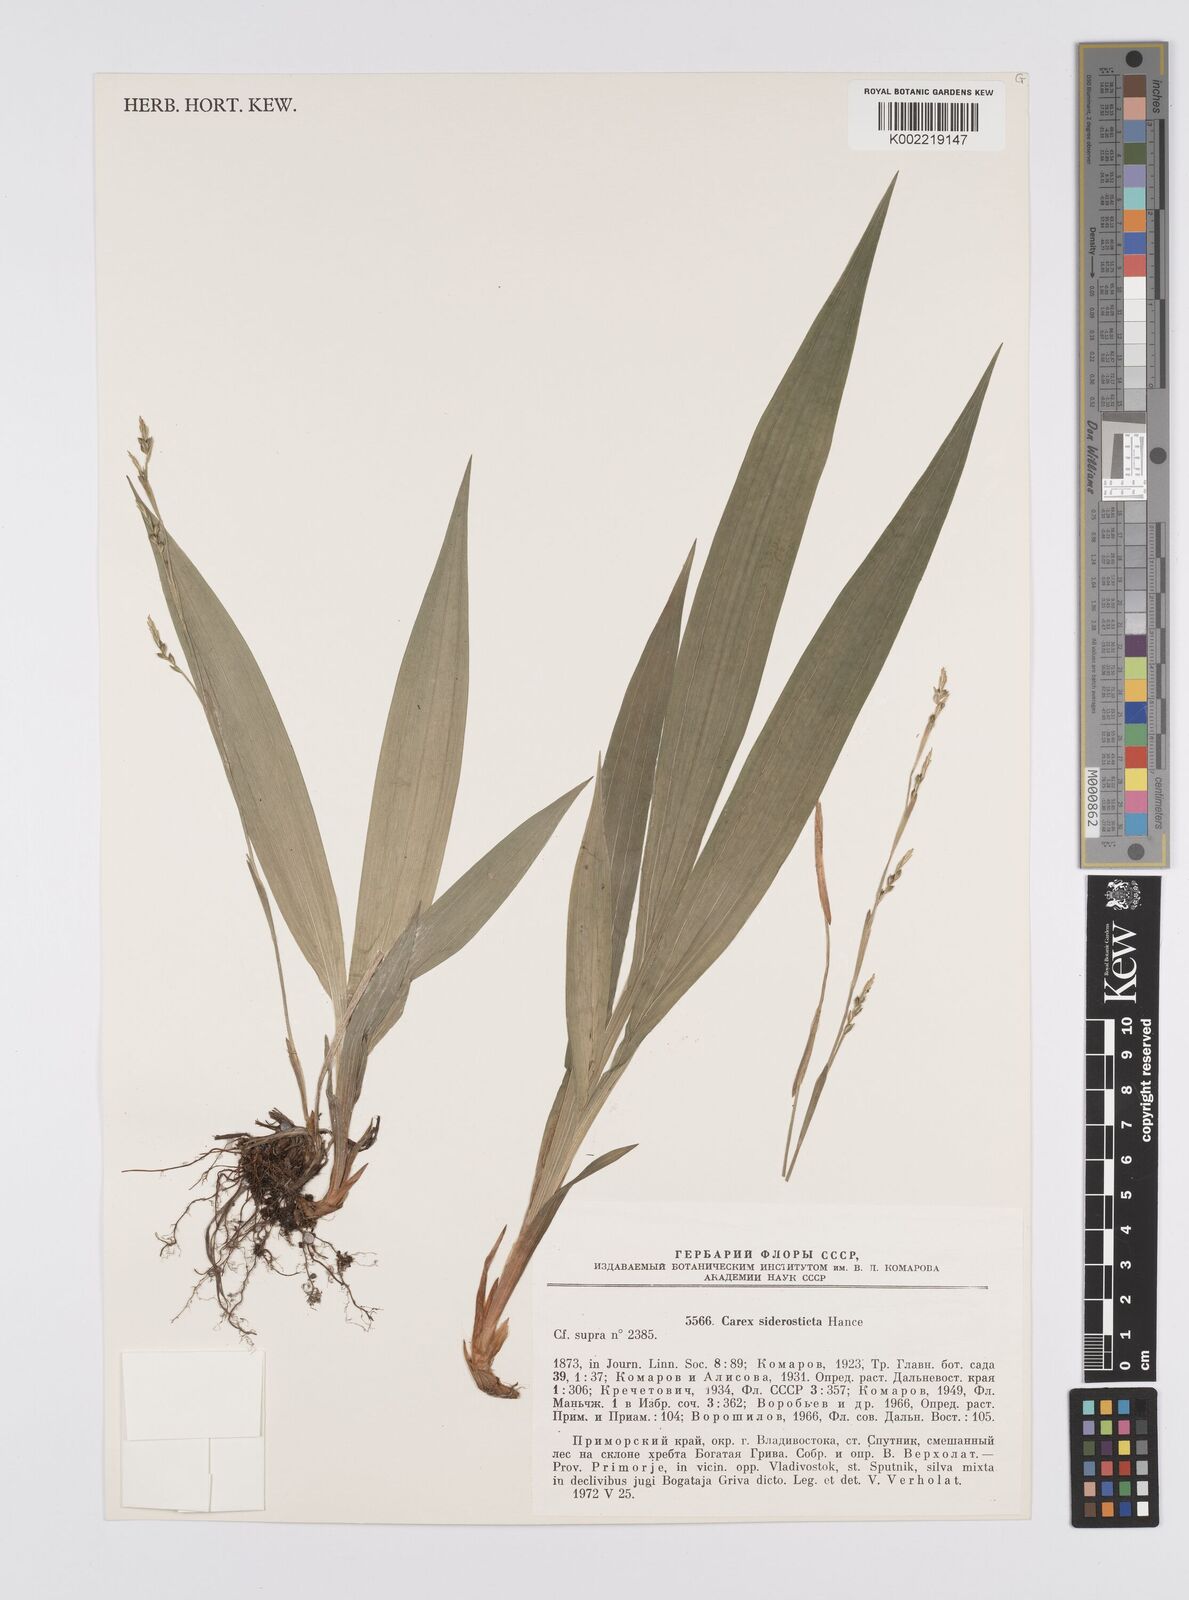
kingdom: Plantae
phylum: Tracheophyta
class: Liliopsida
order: Poales
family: Cyperaceae
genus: Carex
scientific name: Carex siderosticta
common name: Broadleaf sedge
